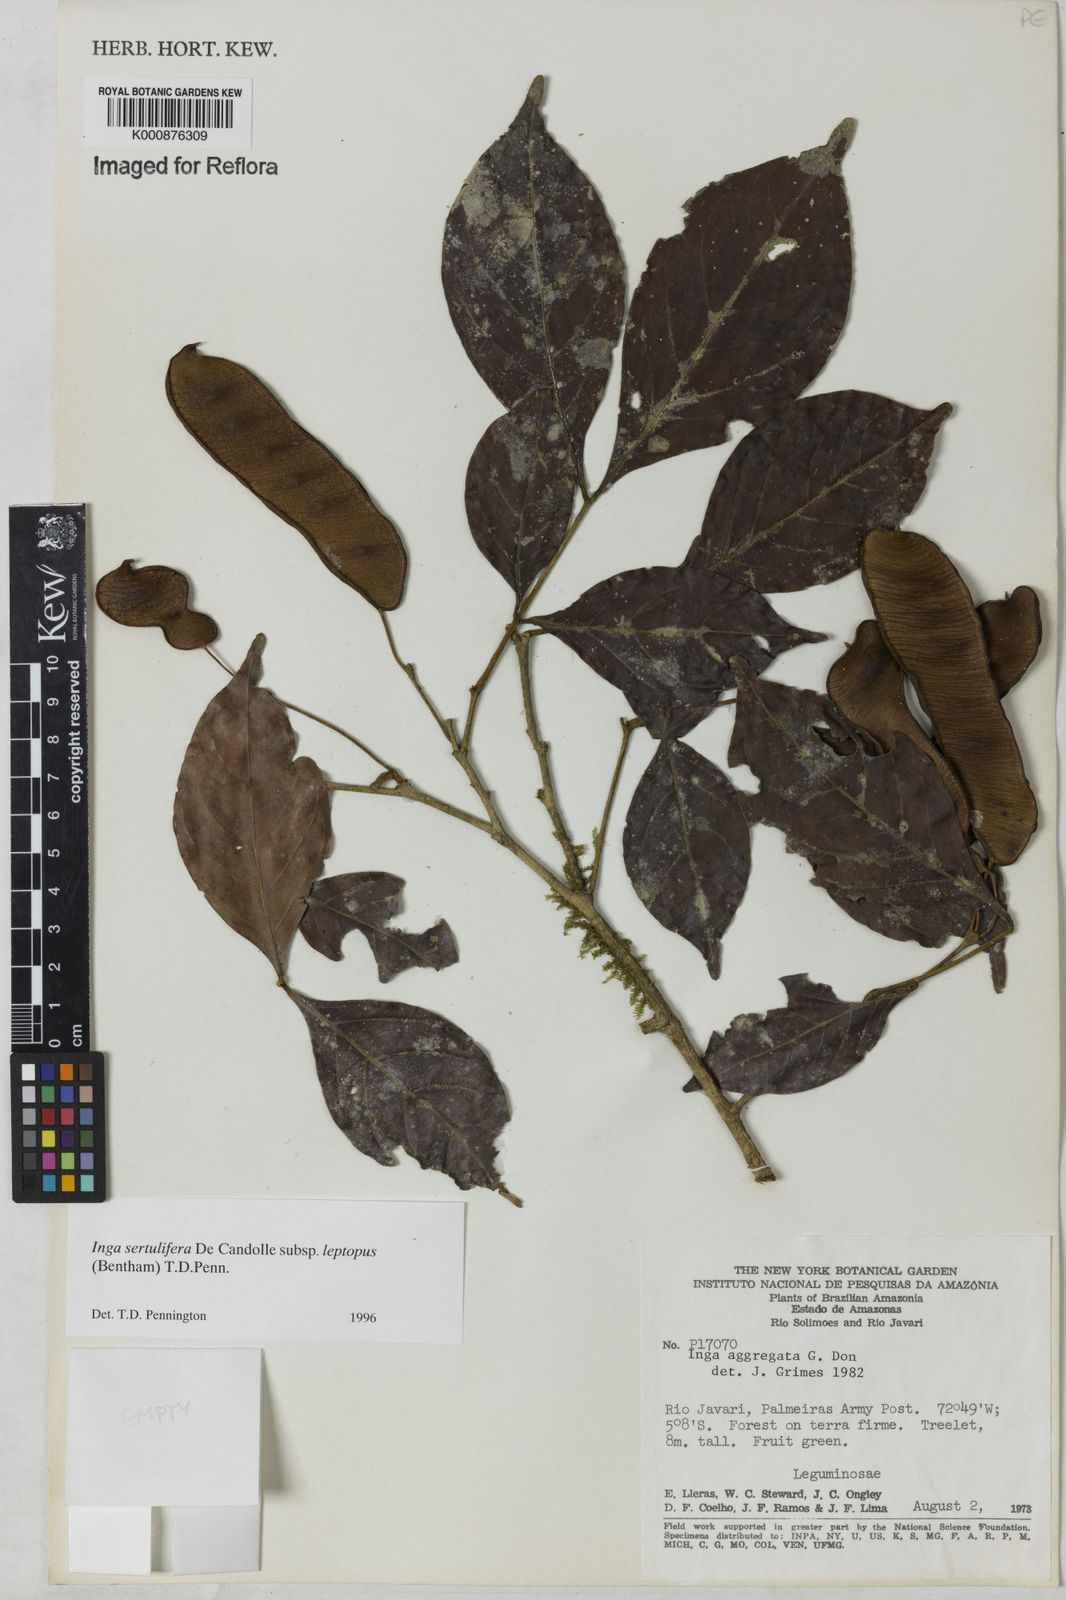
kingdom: Plantae
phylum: Tracheophyta
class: Magnoliopsida
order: Fabales
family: Fabaceae
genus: Inga
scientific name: Inga sertulifera
